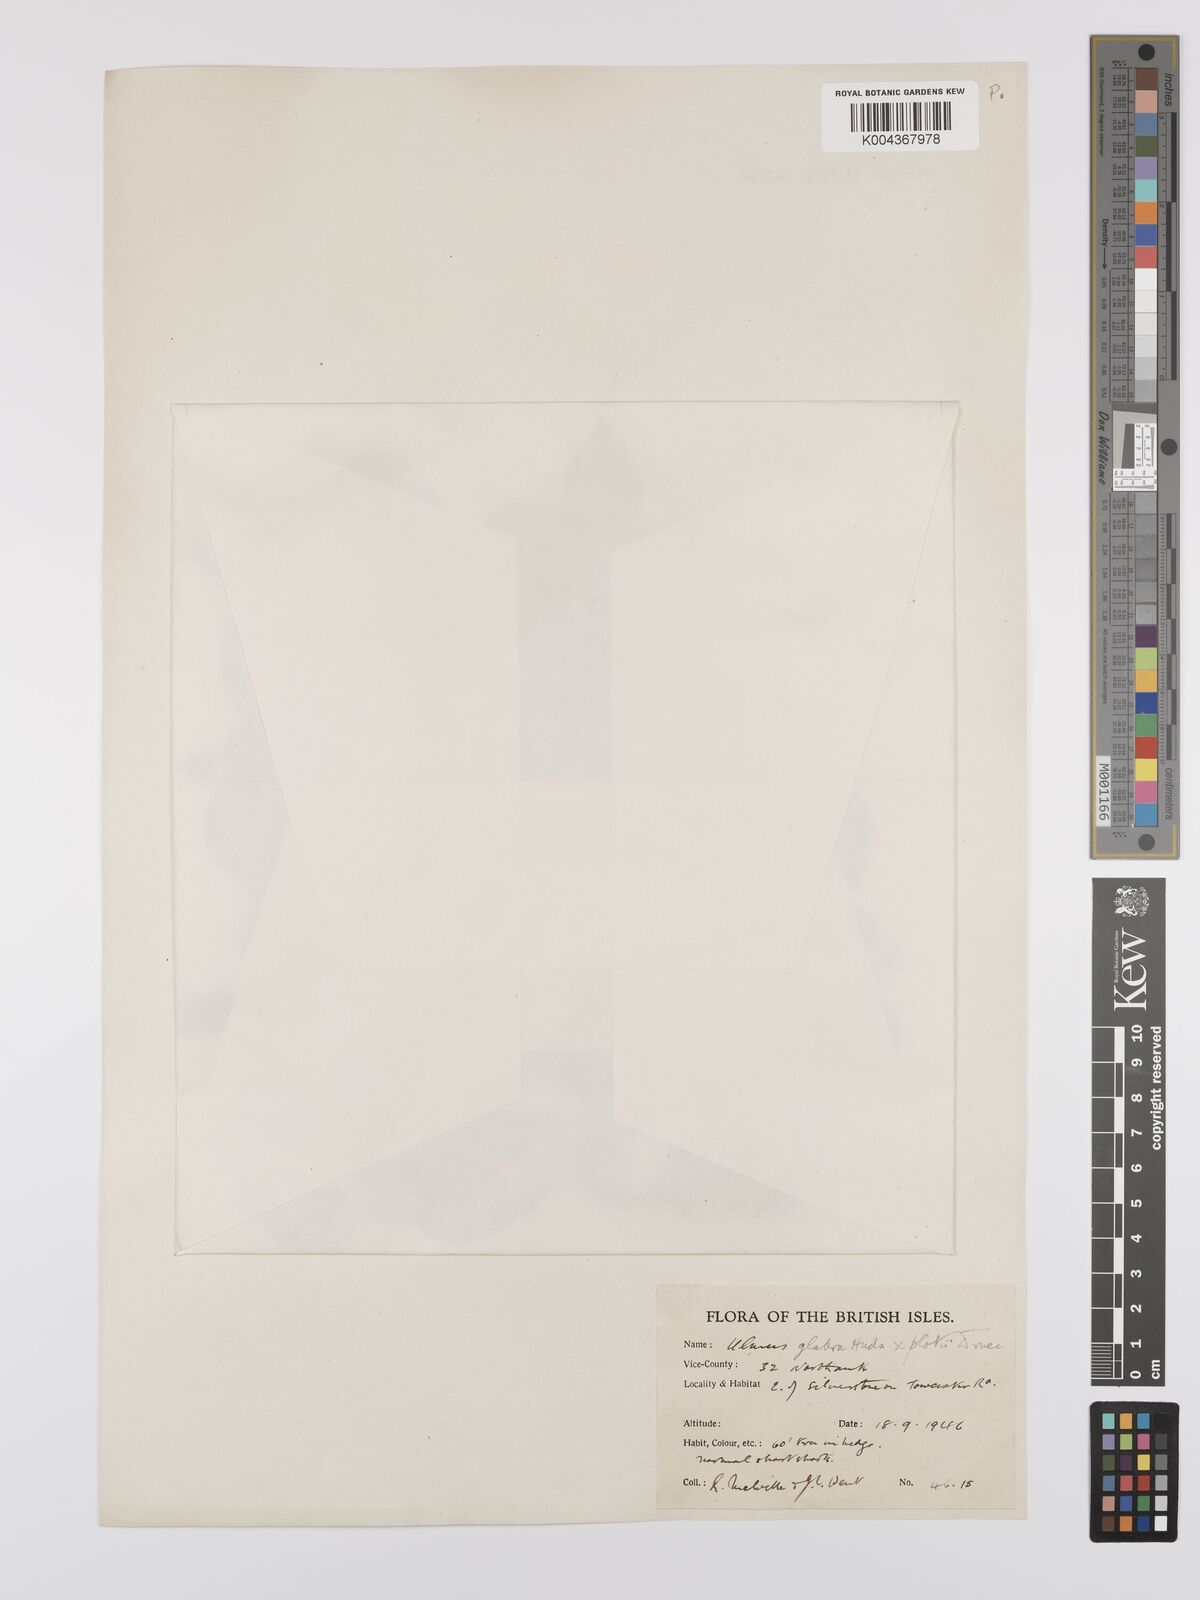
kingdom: Plantae
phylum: Tracheophyta
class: Magnoliopsida
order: Rosales
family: Ulmaceae
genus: Ulmus
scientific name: Ulmus
